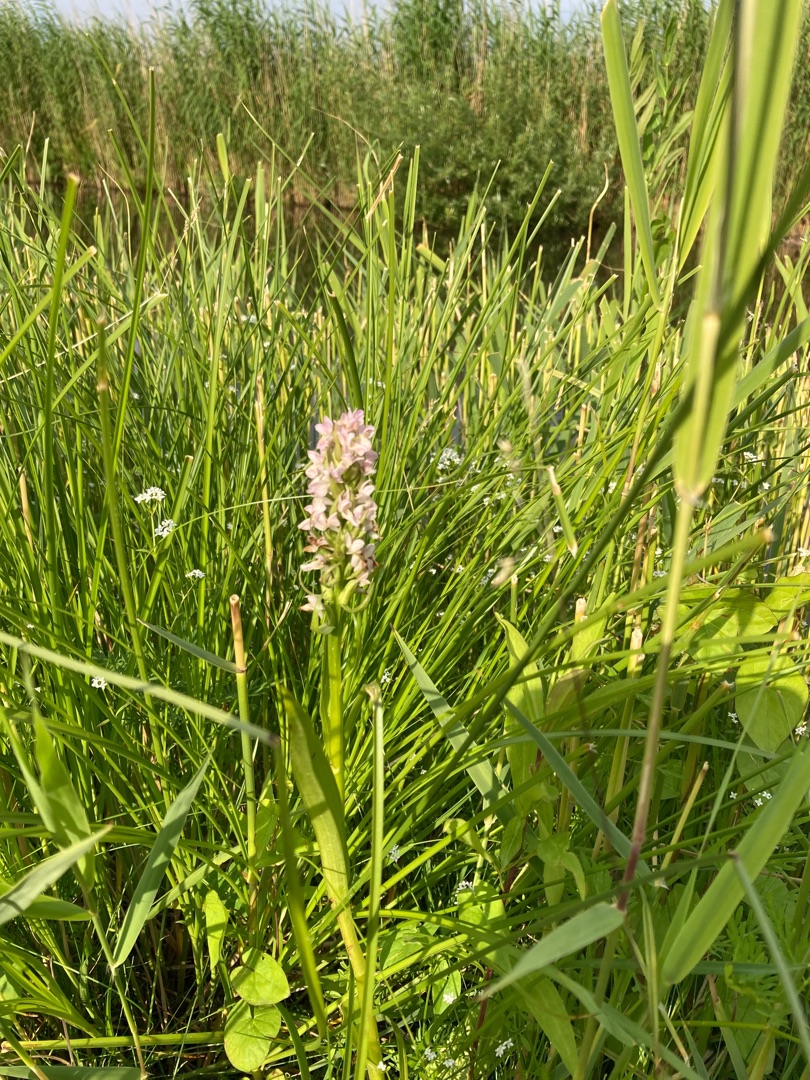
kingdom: Plantae
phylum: Tracheophyta
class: Liliopsida
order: Asparagales
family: Orchidaceae
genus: Dactylorhiza
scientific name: Dactylorhiza incarnata
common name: Kødfarvet gøgeurt
